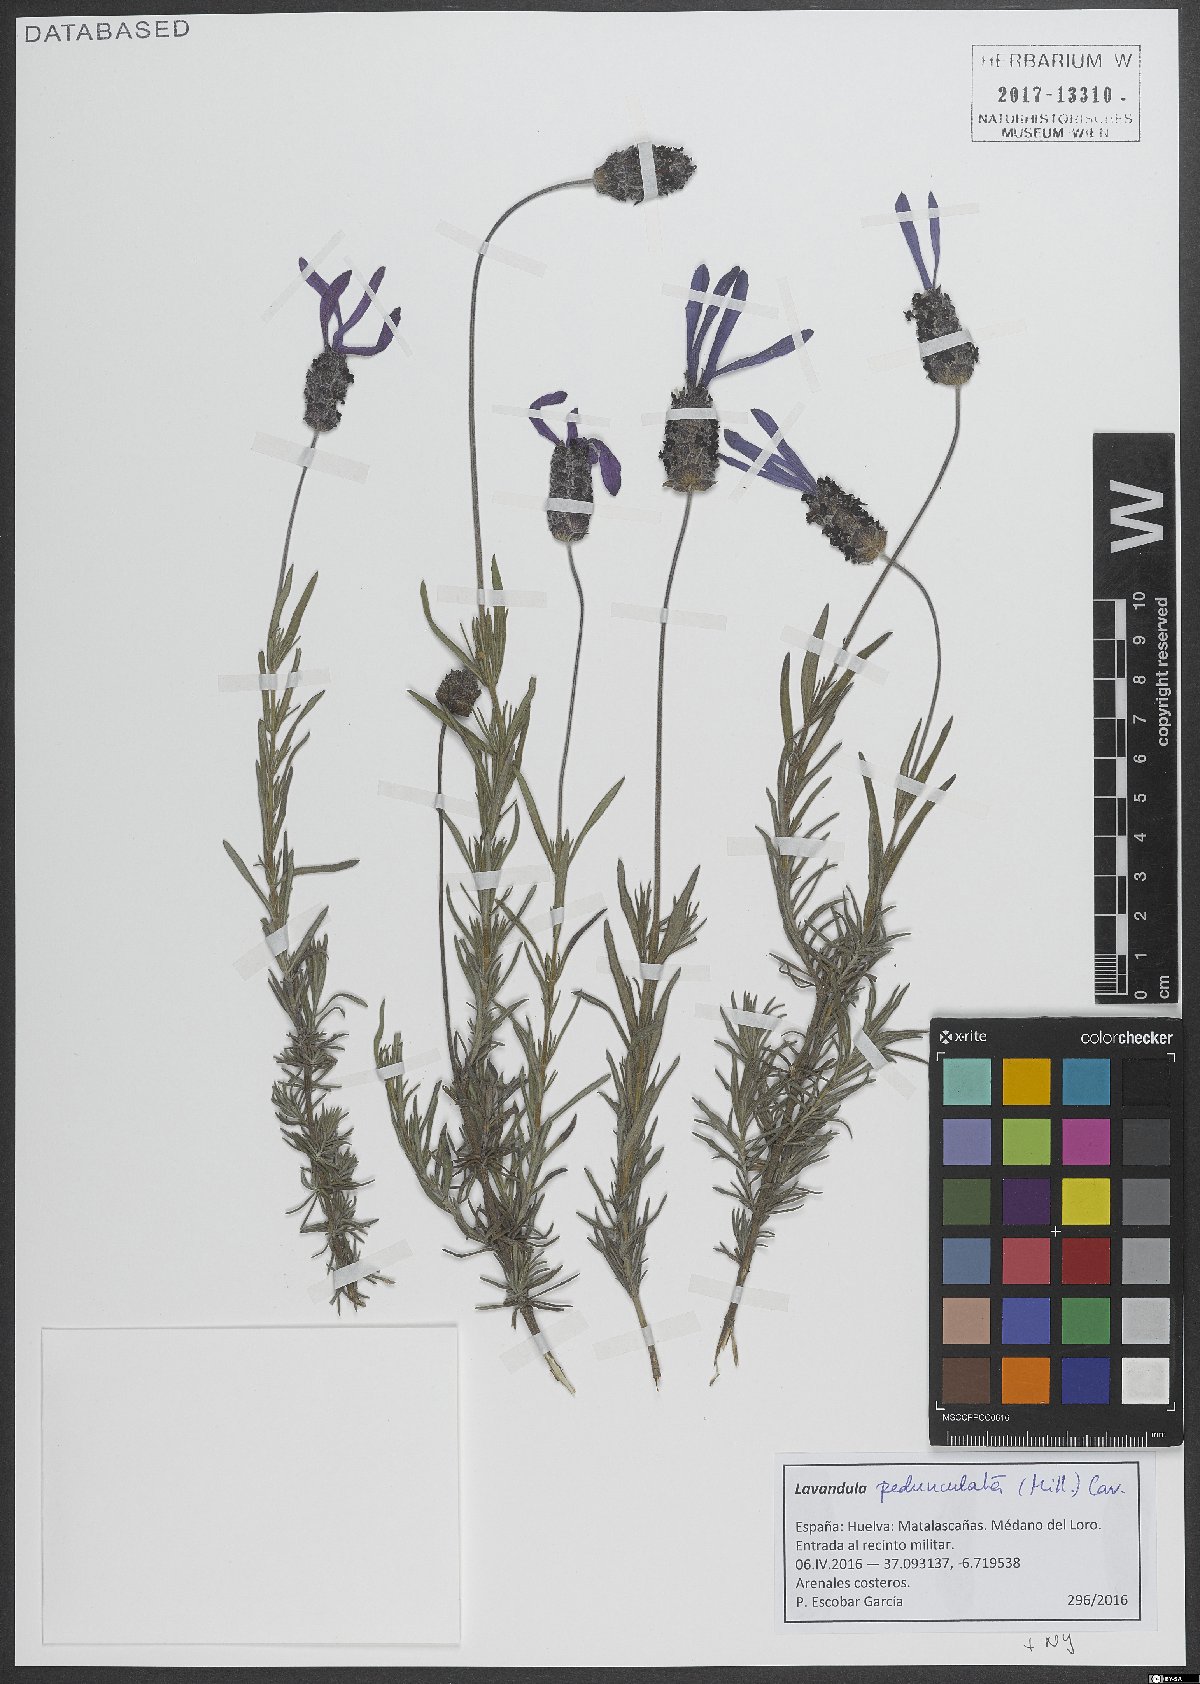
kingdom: Plantae
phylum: Tracheophyta
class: Magnoliopsida
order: Lamiales
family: Lamiaceae
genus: Lavandula
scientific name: Lavandula pedunculata
